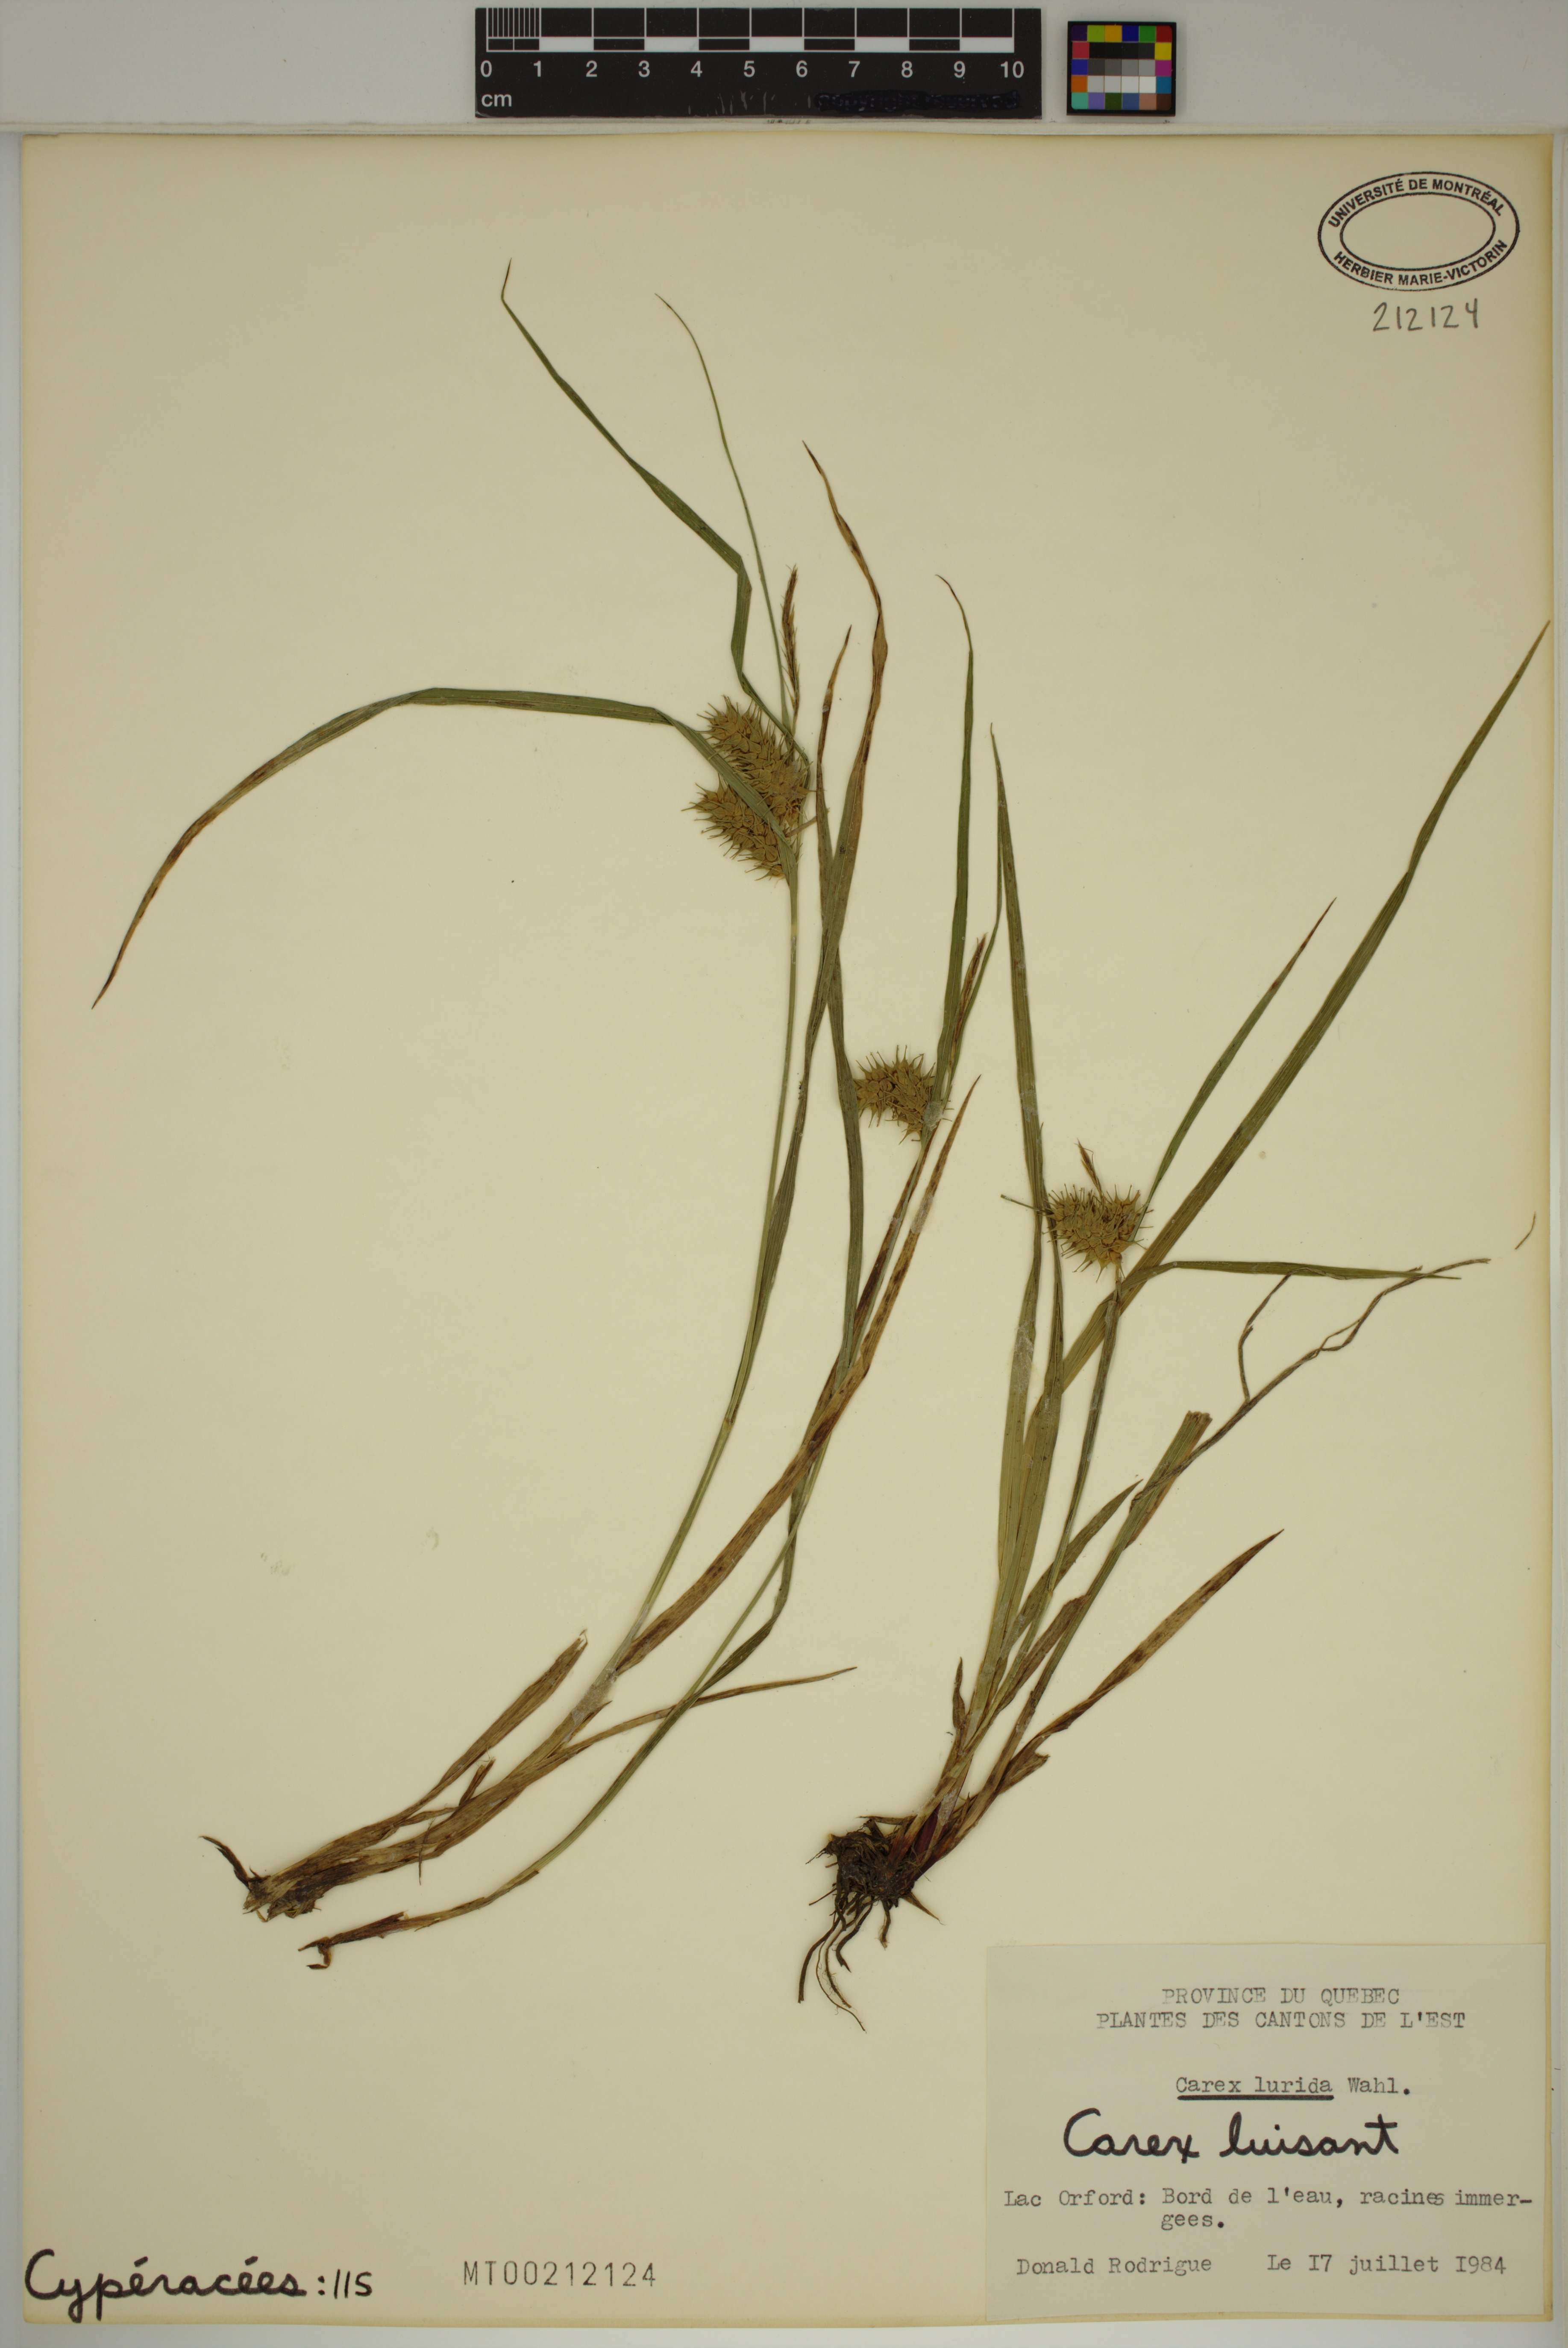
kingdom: Plantae
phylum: Tracheophyta
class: Liliopsida
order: Poales
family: Cyperaceae
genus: Carex
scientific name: Carex lurida
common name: Sallow sedge
